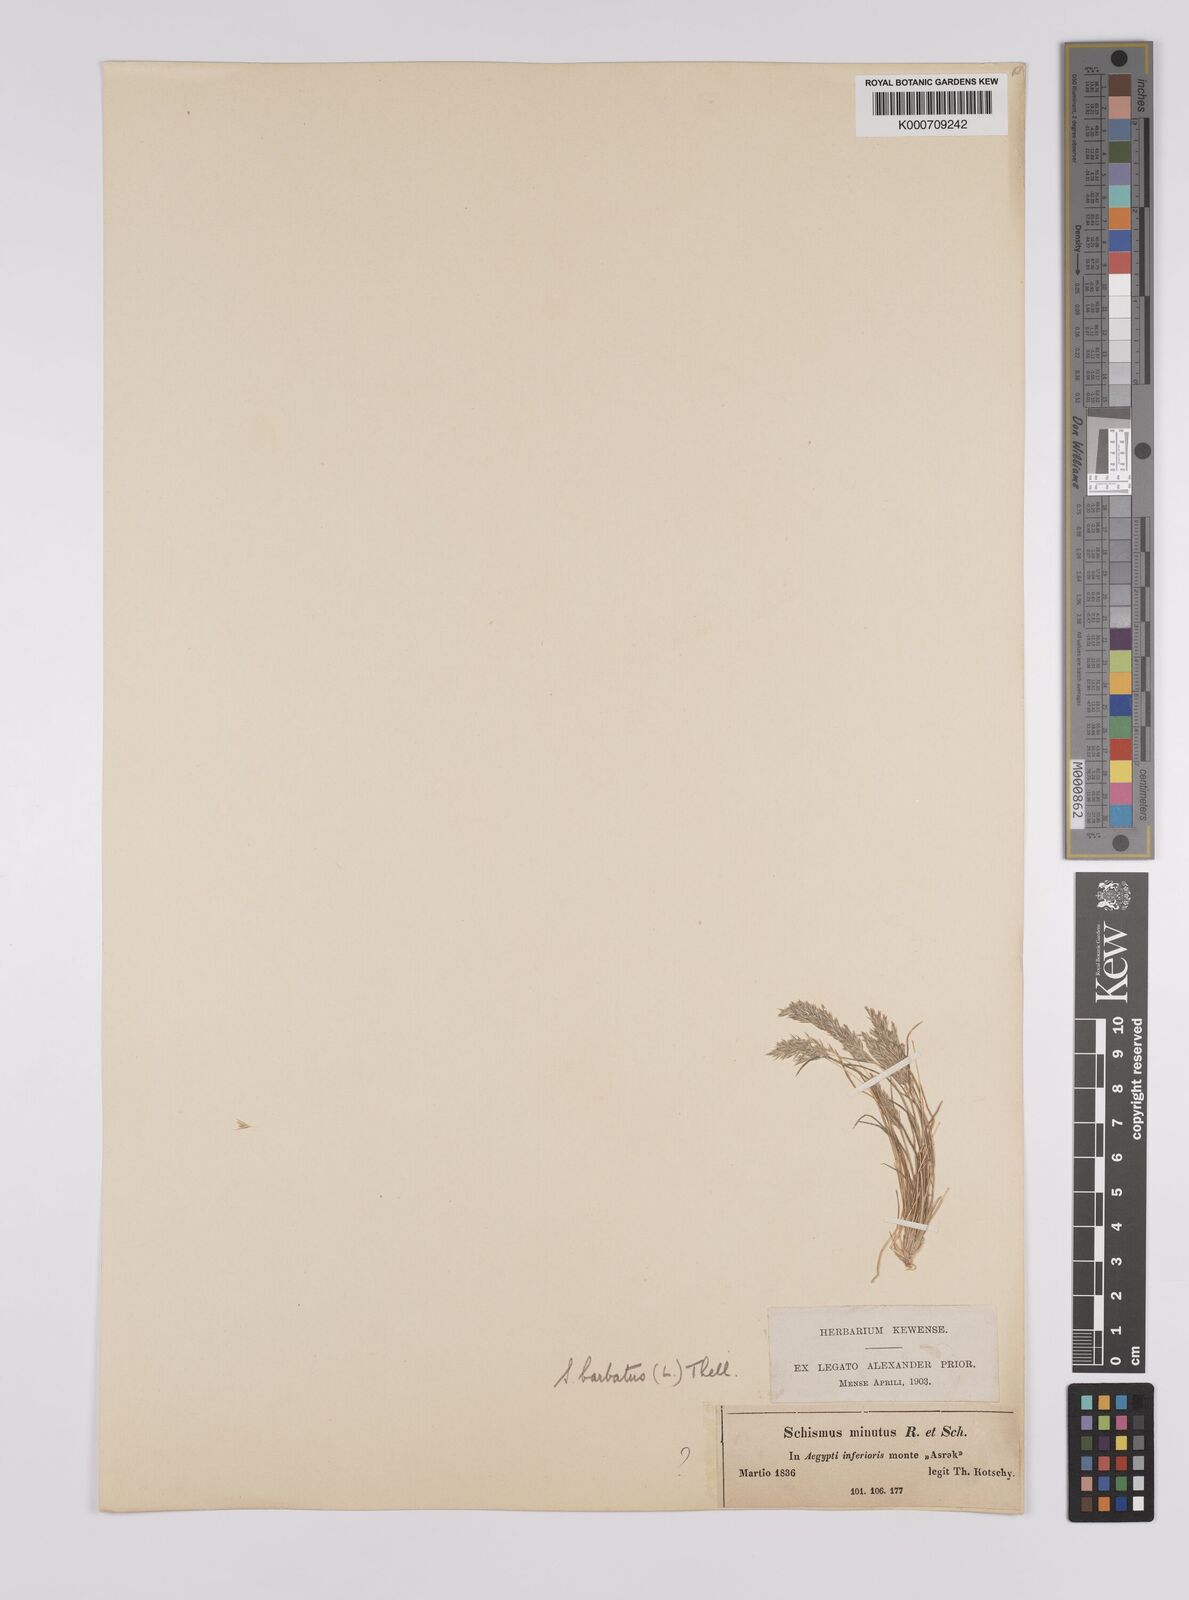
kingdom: Plantae
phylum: Tracheophyta
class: Liliopsida
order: Poales
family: Poaceae
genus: Schismus
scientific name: Schismus barbatus
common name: Kelch-grass
